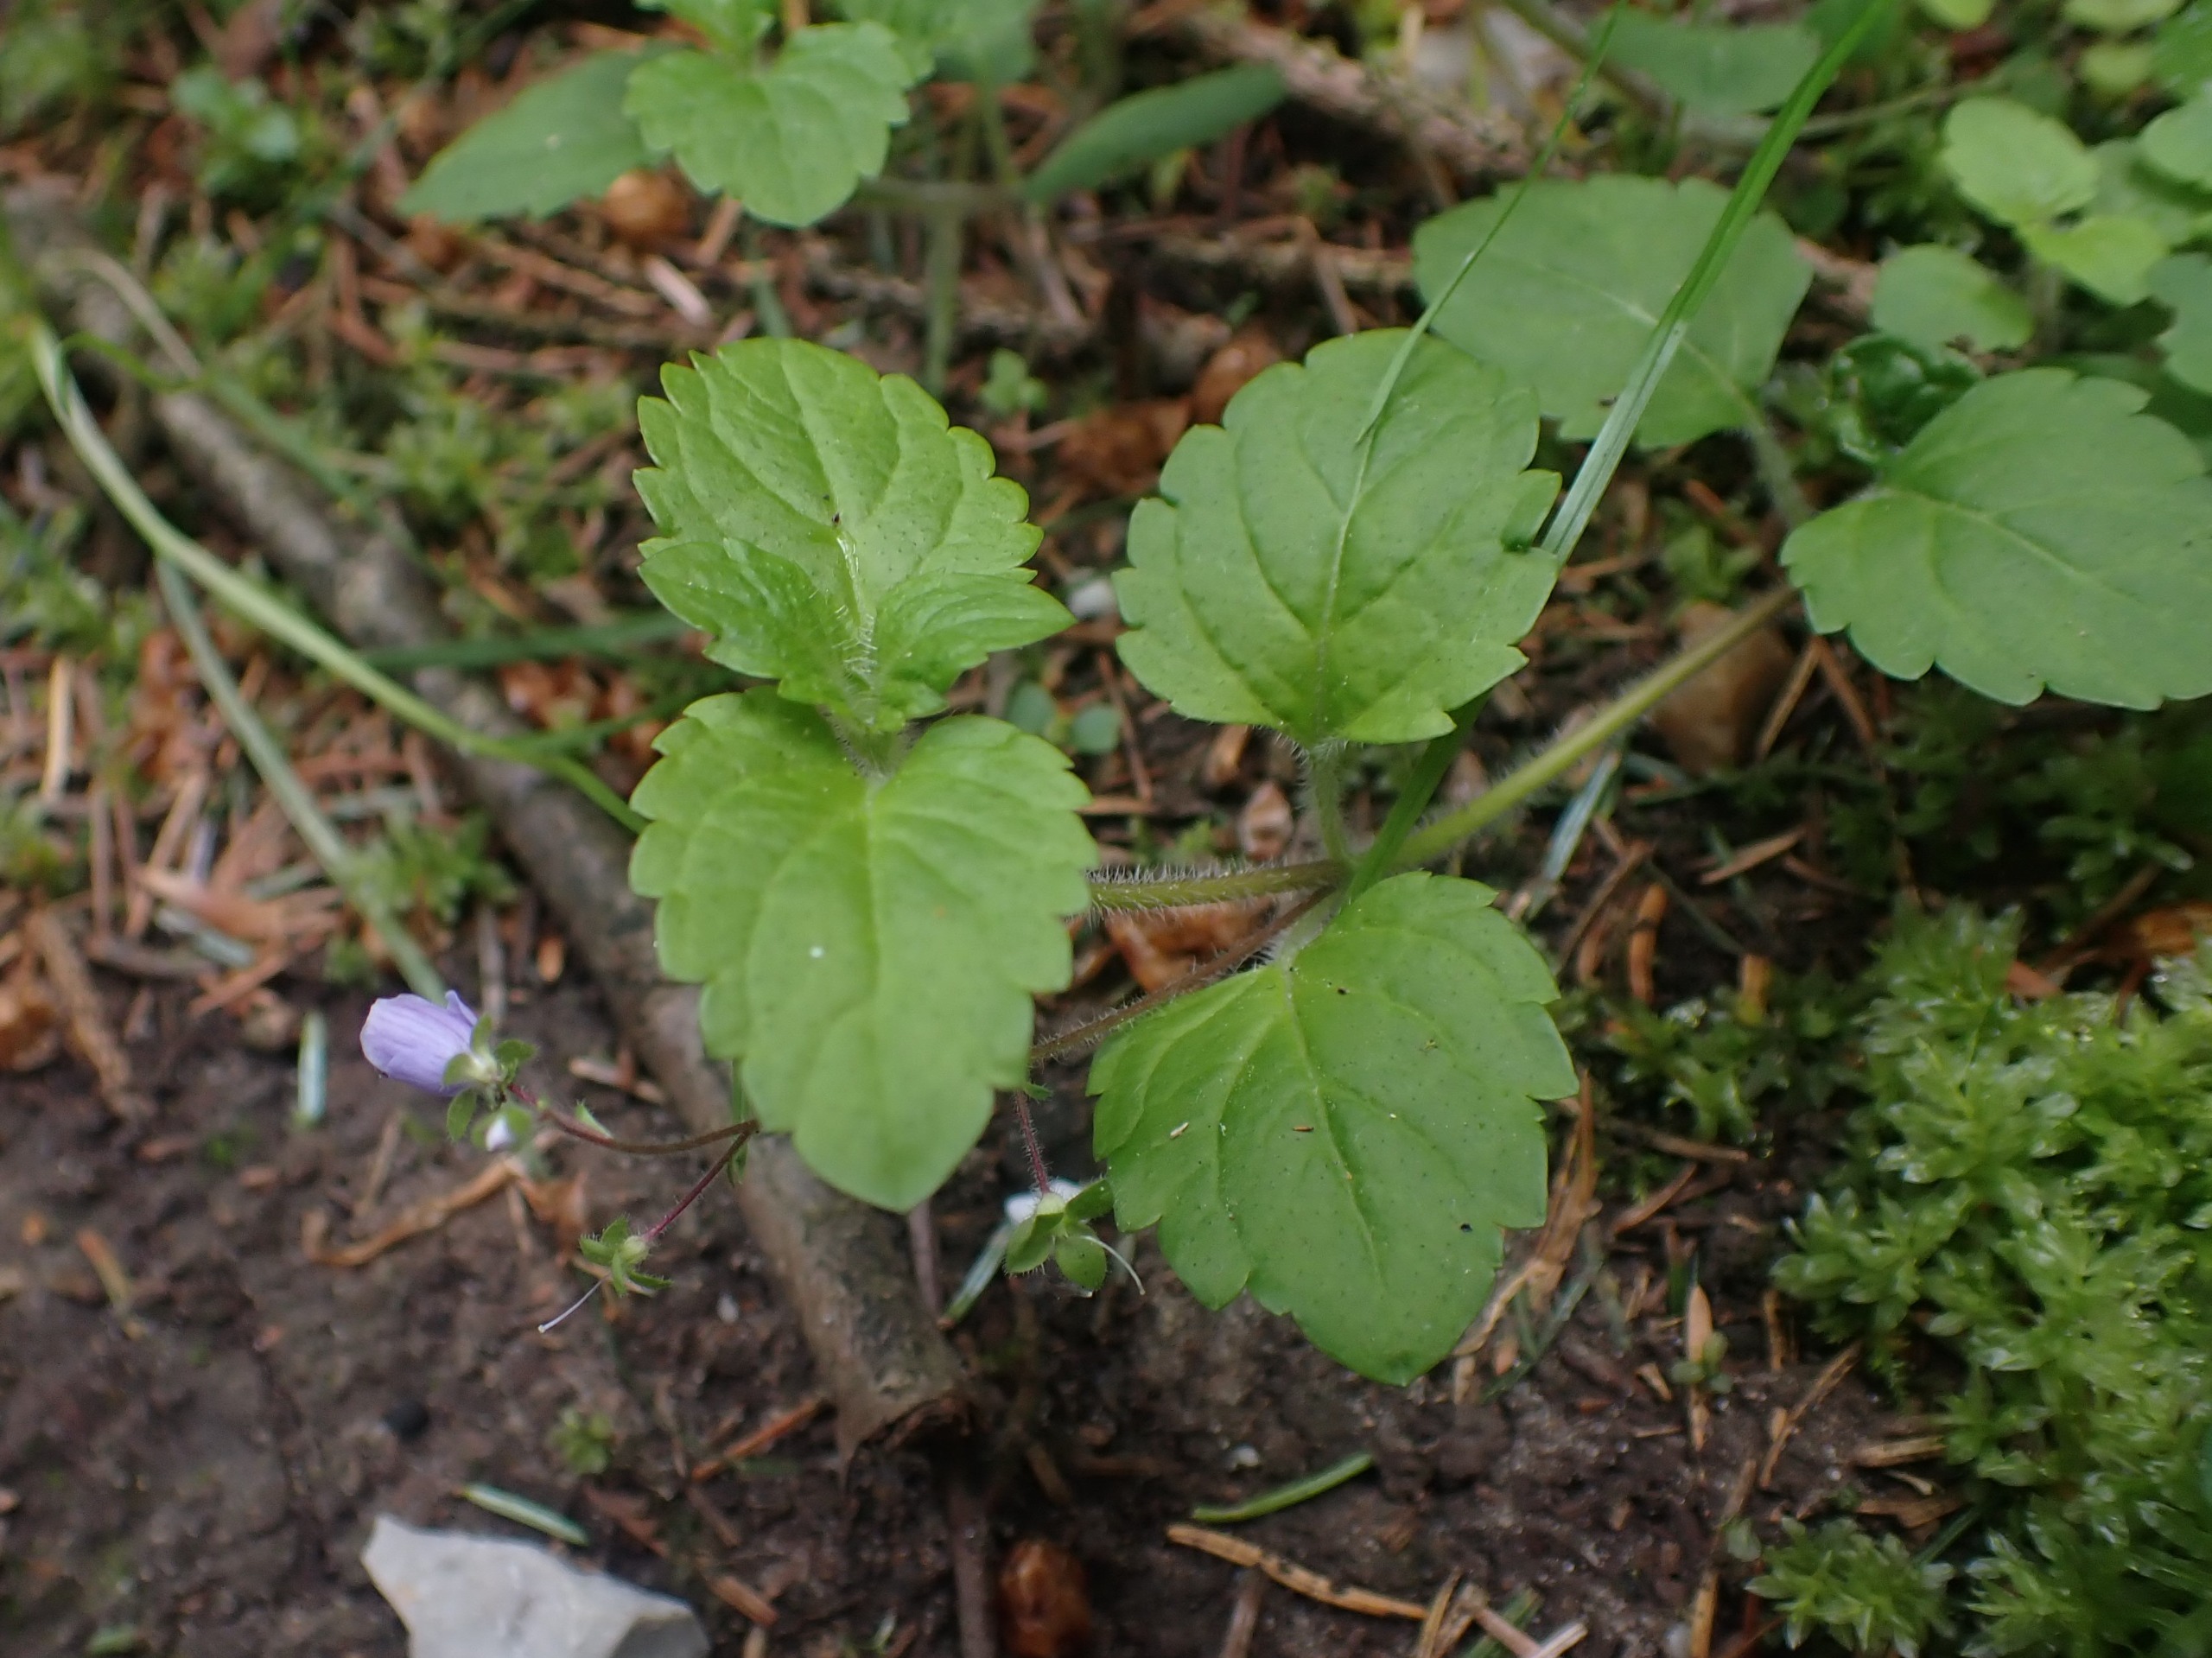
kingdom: Plantae
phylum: Tracheophyta
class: Magnoliopsida
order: Lamiales
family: Plantaginaceae
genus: Veronica
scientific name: Veronica montana
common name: Bjerg-ærenpris
